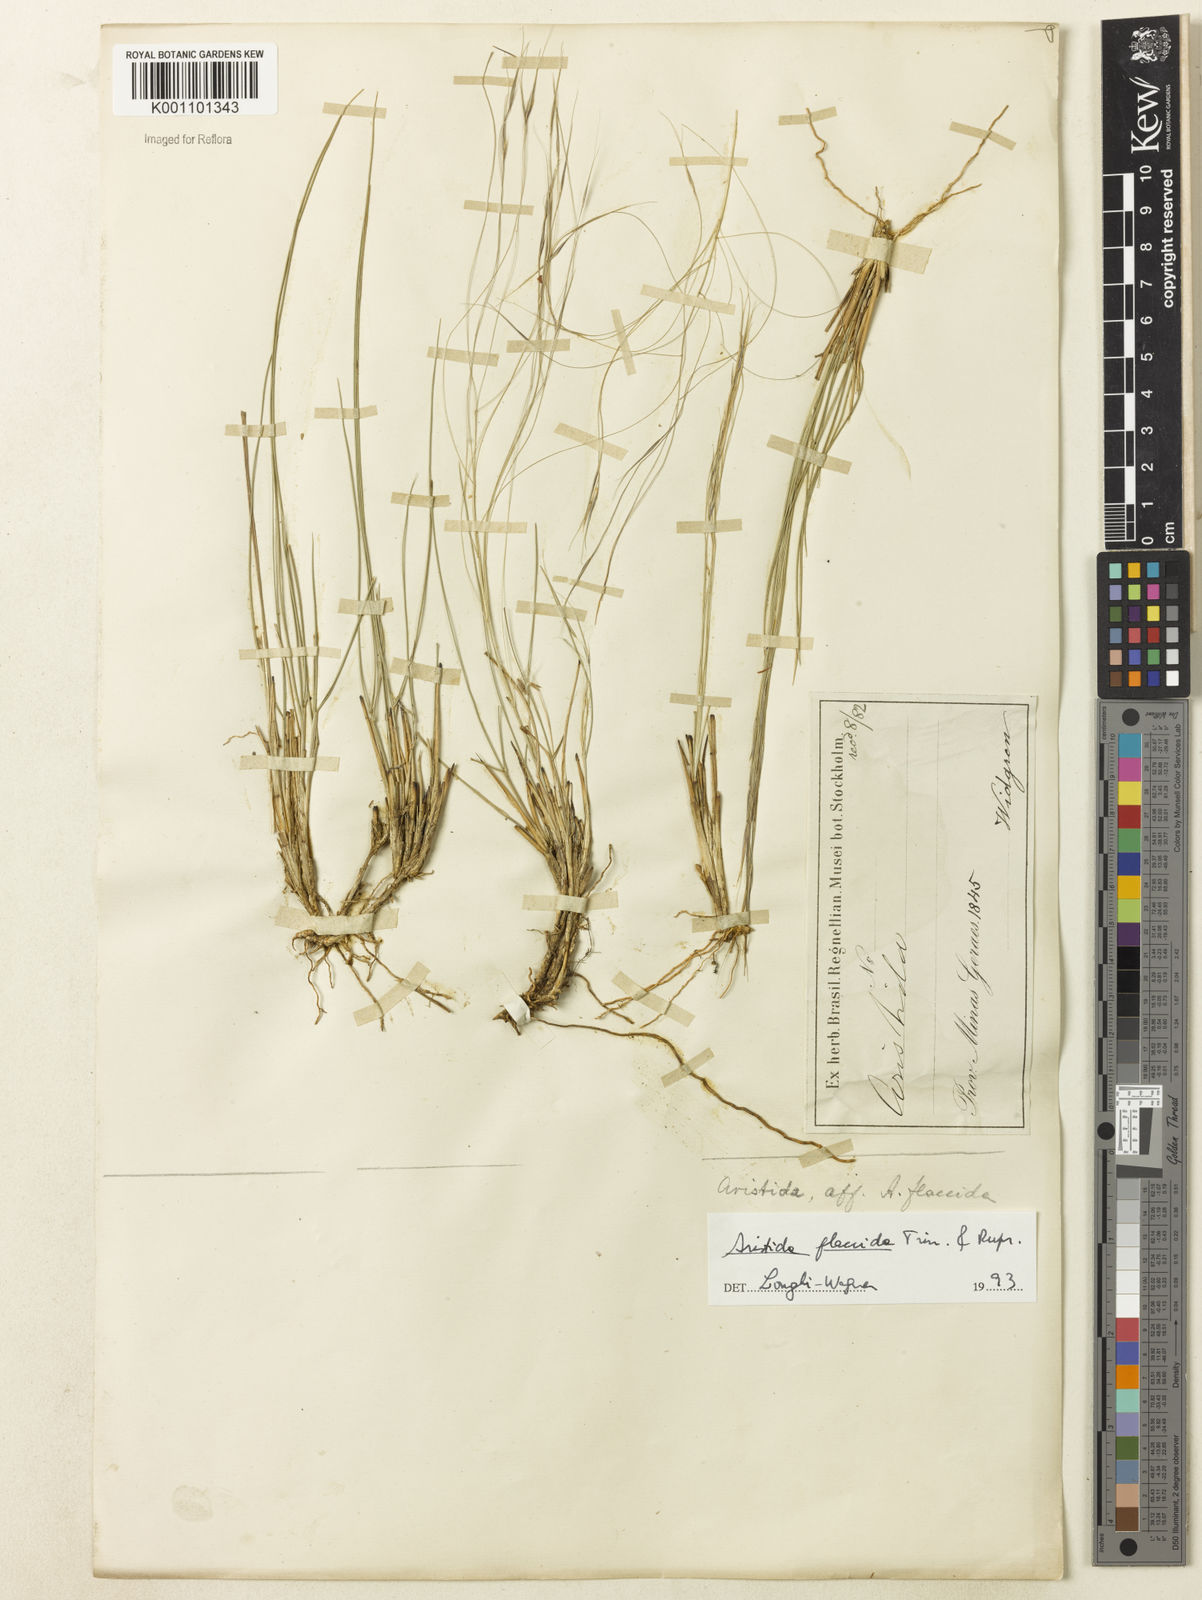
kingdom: Plantae
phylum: Tracheophyta
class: Liliopsida
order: Poales
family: Poaceae
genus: Aristida
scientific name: Aristida flaccida
